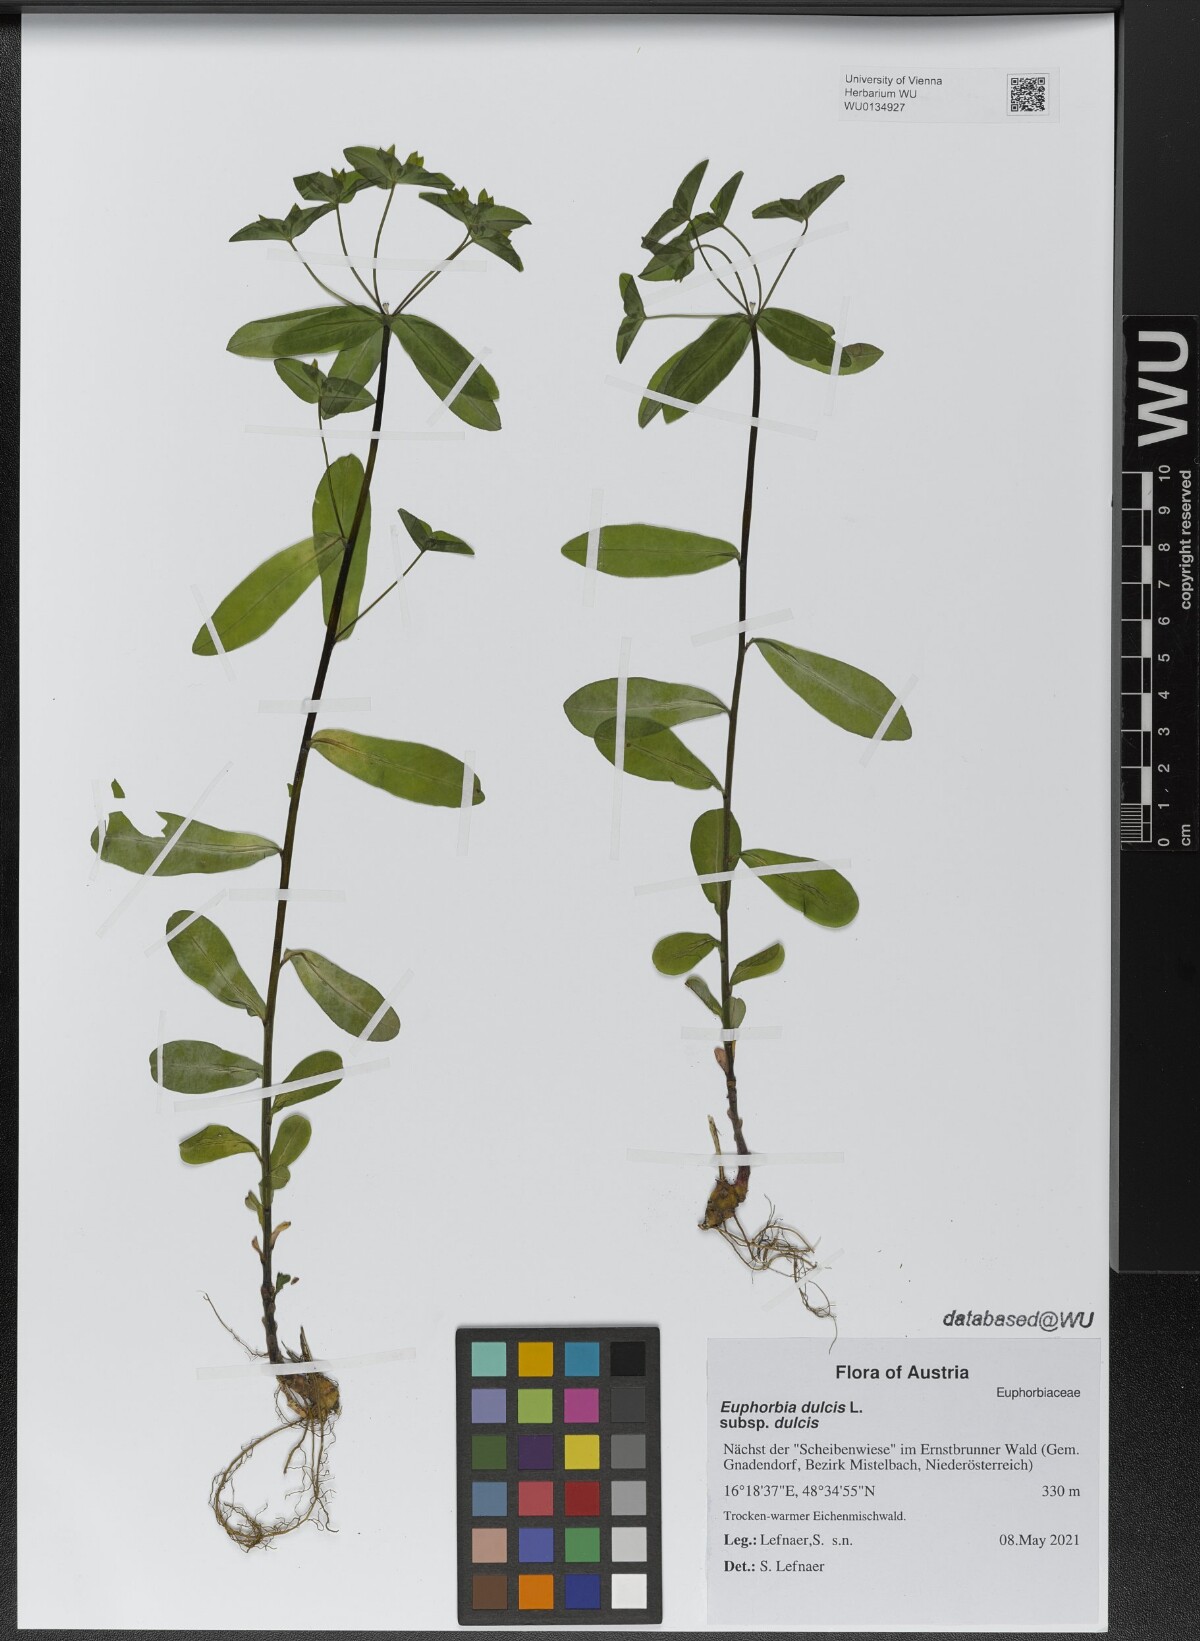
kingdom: Plantae
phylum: Tracheophyta
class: Magnoliopsida
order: Malpighiales
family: Euphorbiaceae
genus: Euphorbia
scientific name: Euphorbia dulcis
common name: Sweet spurge
